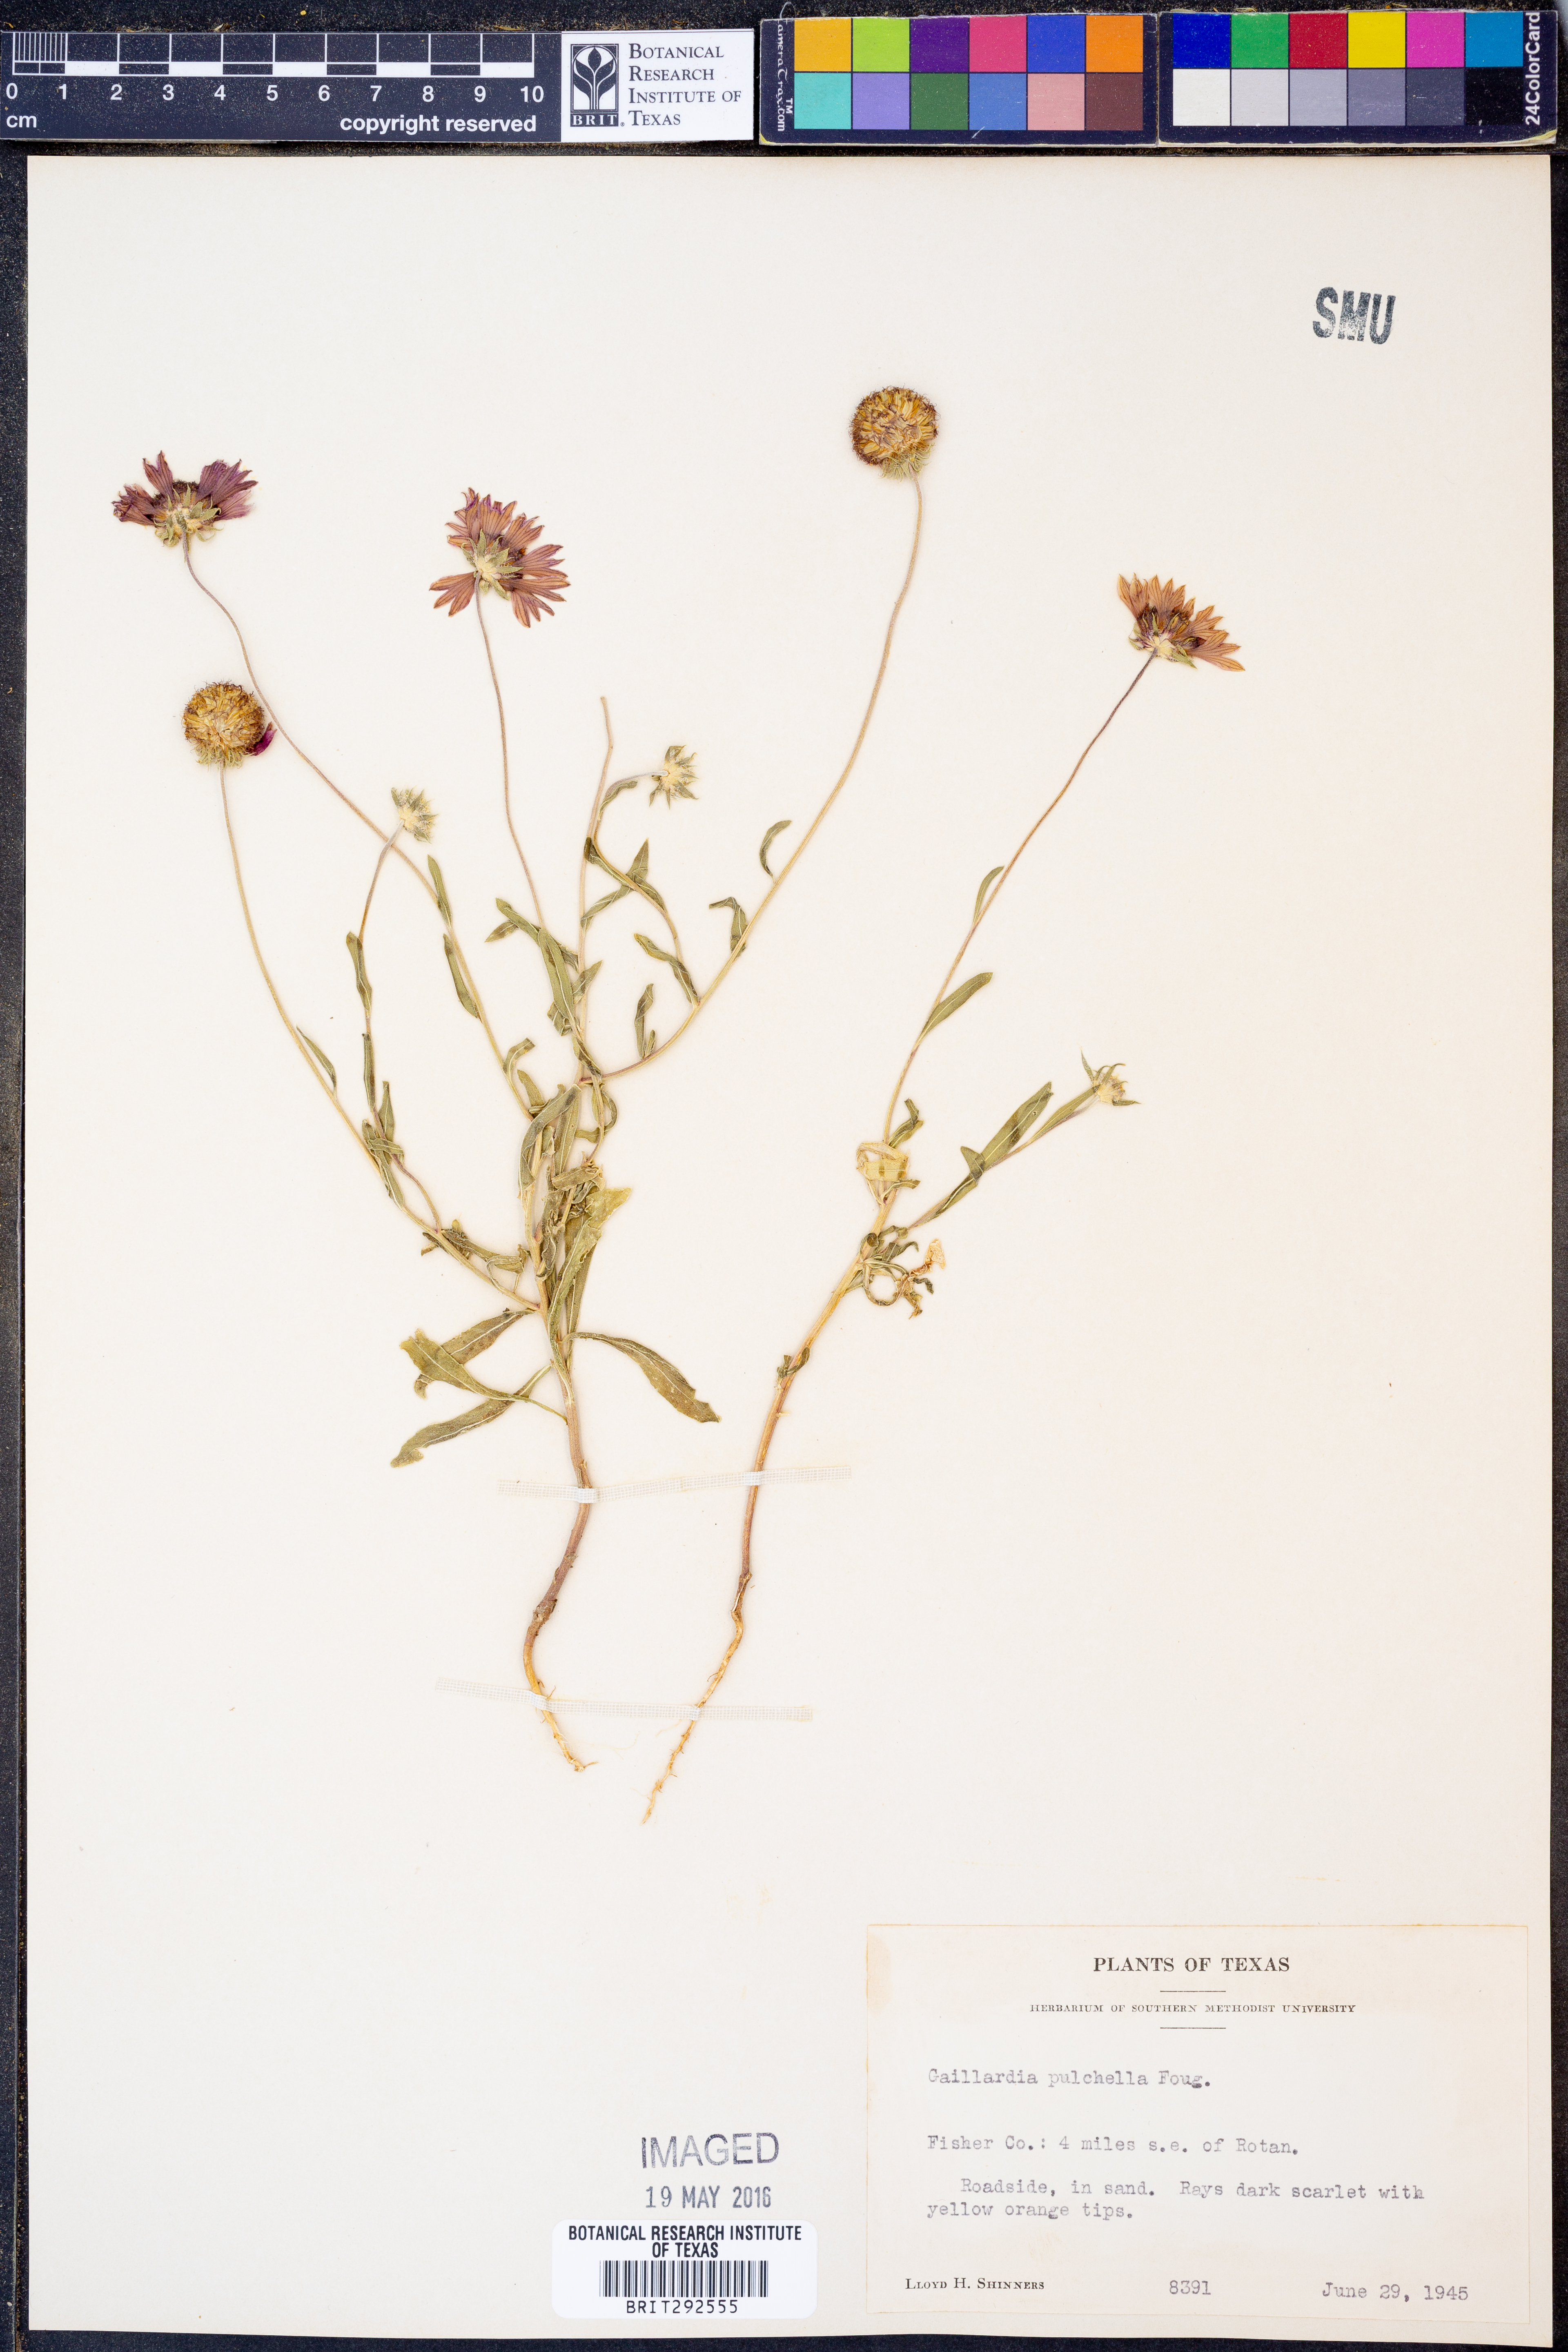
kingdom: Plantae
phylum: Tracheophyta
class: Magnoliopsida
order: Asterales
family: Asteraceae
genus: Gaillardia
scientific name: Gaillardia pulchella
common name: Firewheel
